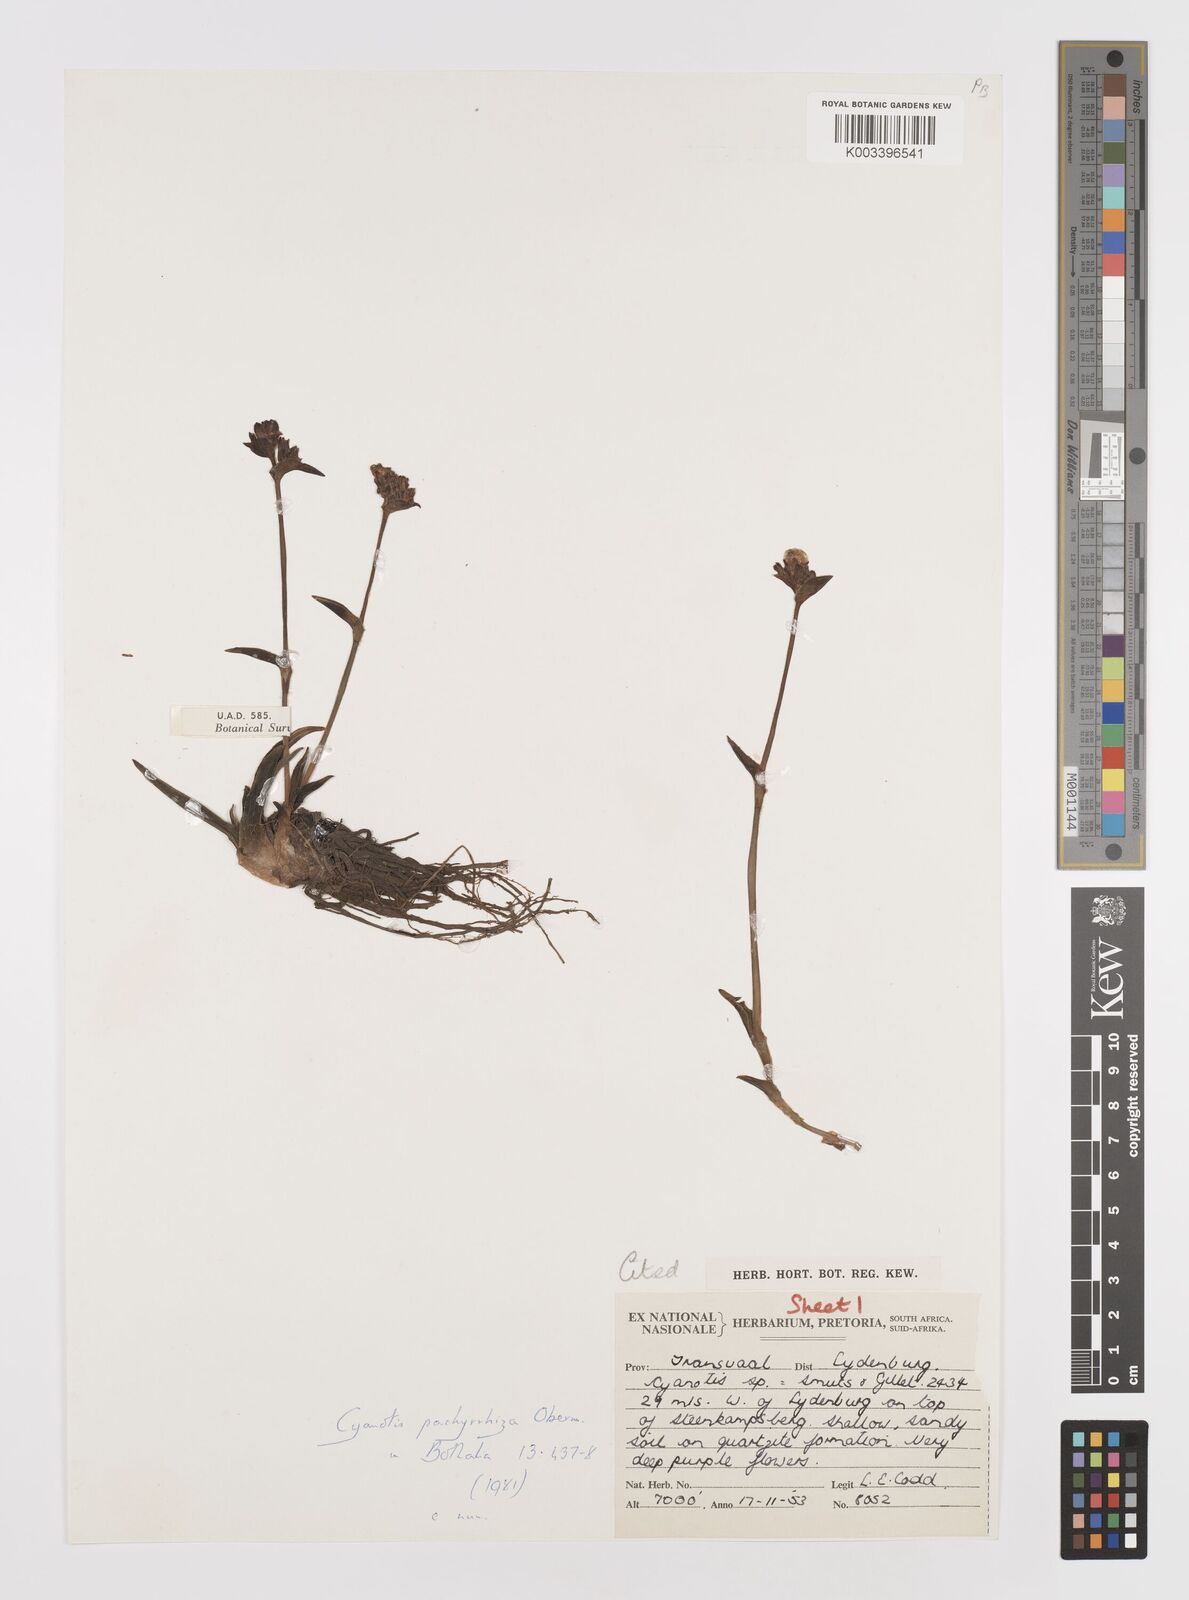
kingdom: Plantae
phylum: Tracheophyta
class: Liliopsida
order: Commelinales
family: Commelinaceae
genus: Cyanotis
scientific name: Cyanotis pachyrrhiza
